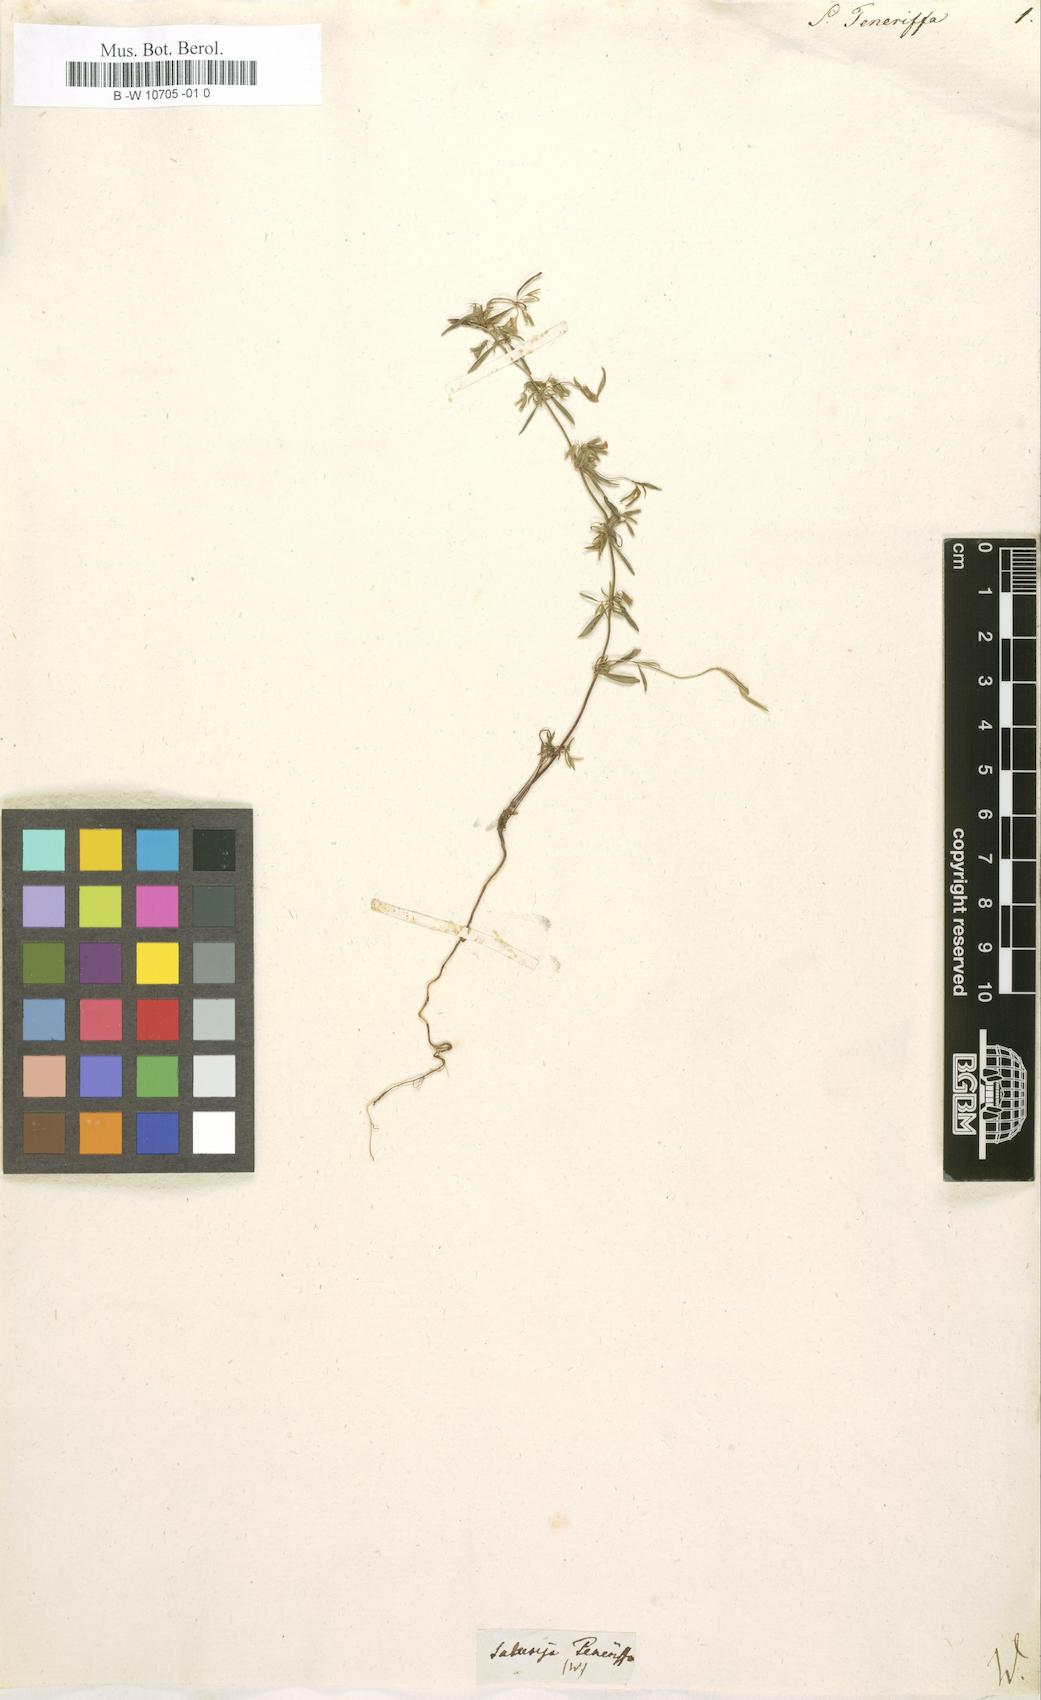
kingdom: Plantae
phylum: Tracheophyta
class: Magnoliopsida
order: Lamiales
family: Lamiaceae
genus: Micromeria
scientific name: Micromeria microphylla
